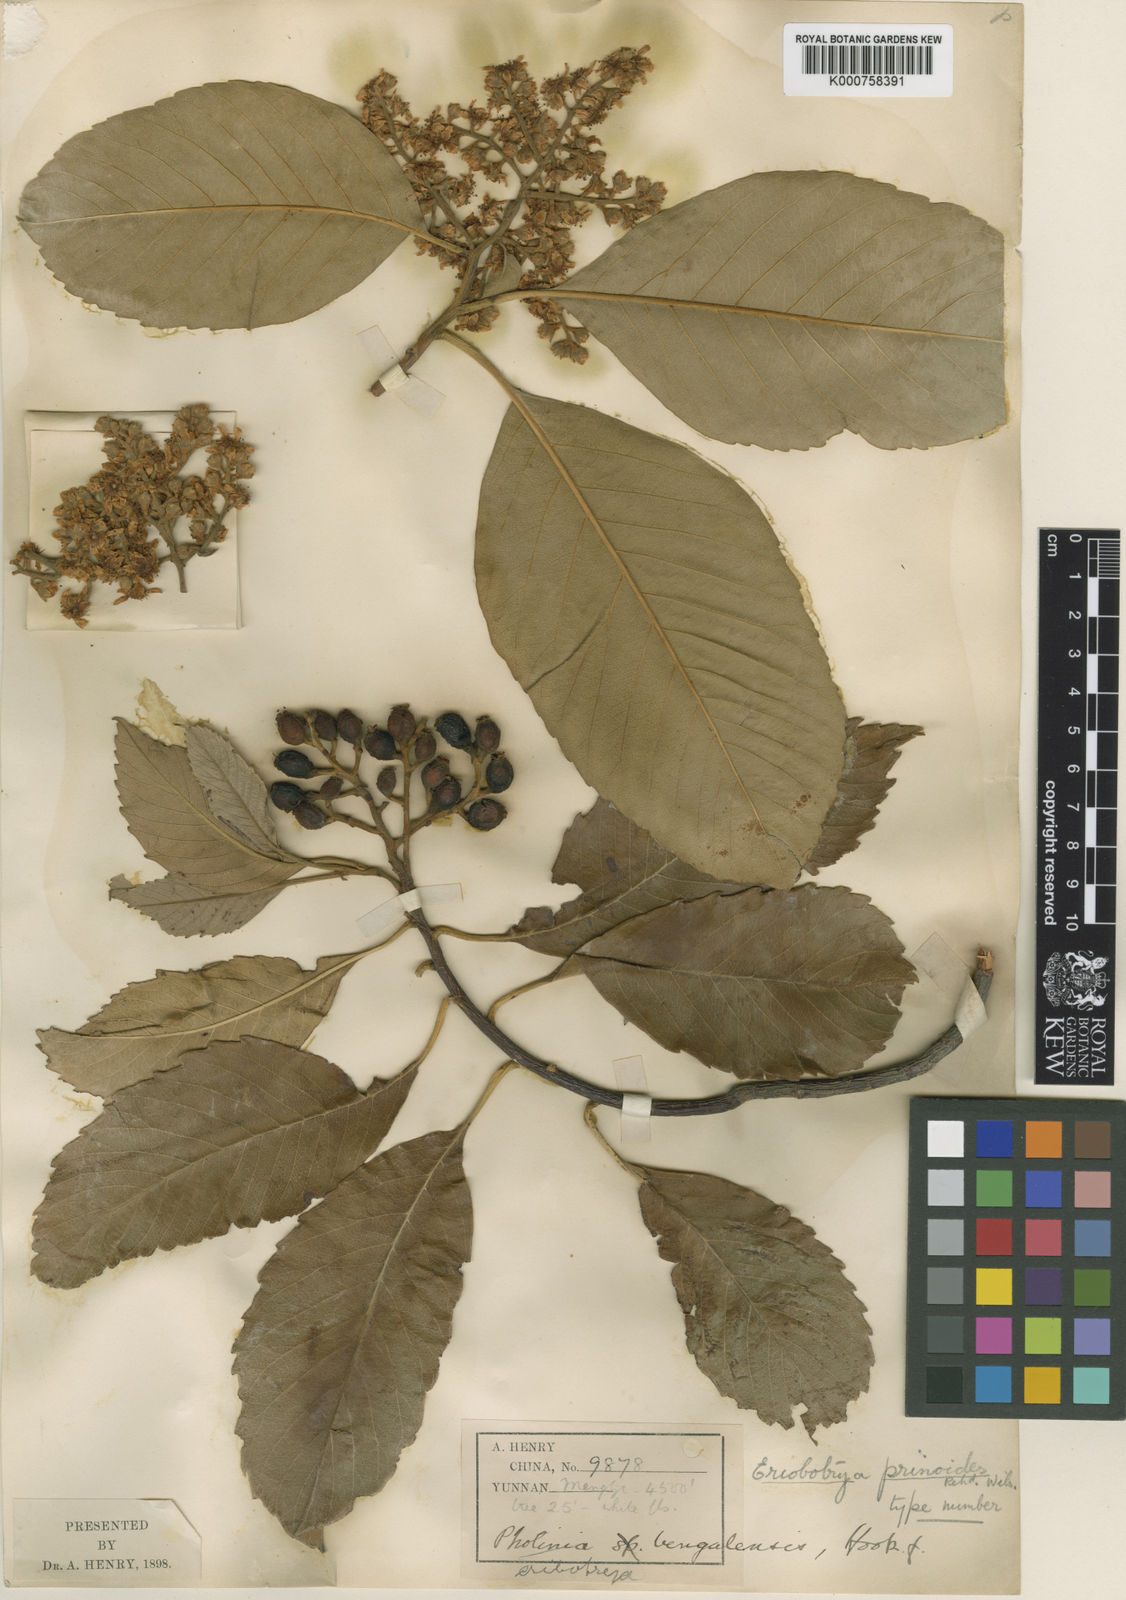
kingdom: Plantae
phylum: Tracheophyta
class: Magnoliopsida
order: Rosales
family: Rosaceae
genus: Rhaphiolepis
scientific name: Rhaphiolepis prinoides
